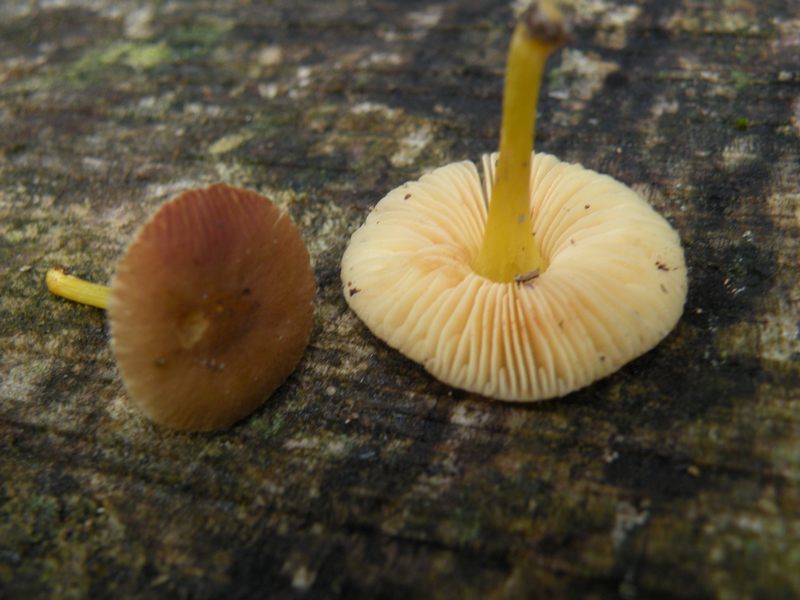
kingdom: Fungi
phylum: Basidiomycota
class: Agaricomycetes
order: Agaricales
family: Pluteaceae
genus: Pluteus
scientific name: Pluteus romellii
